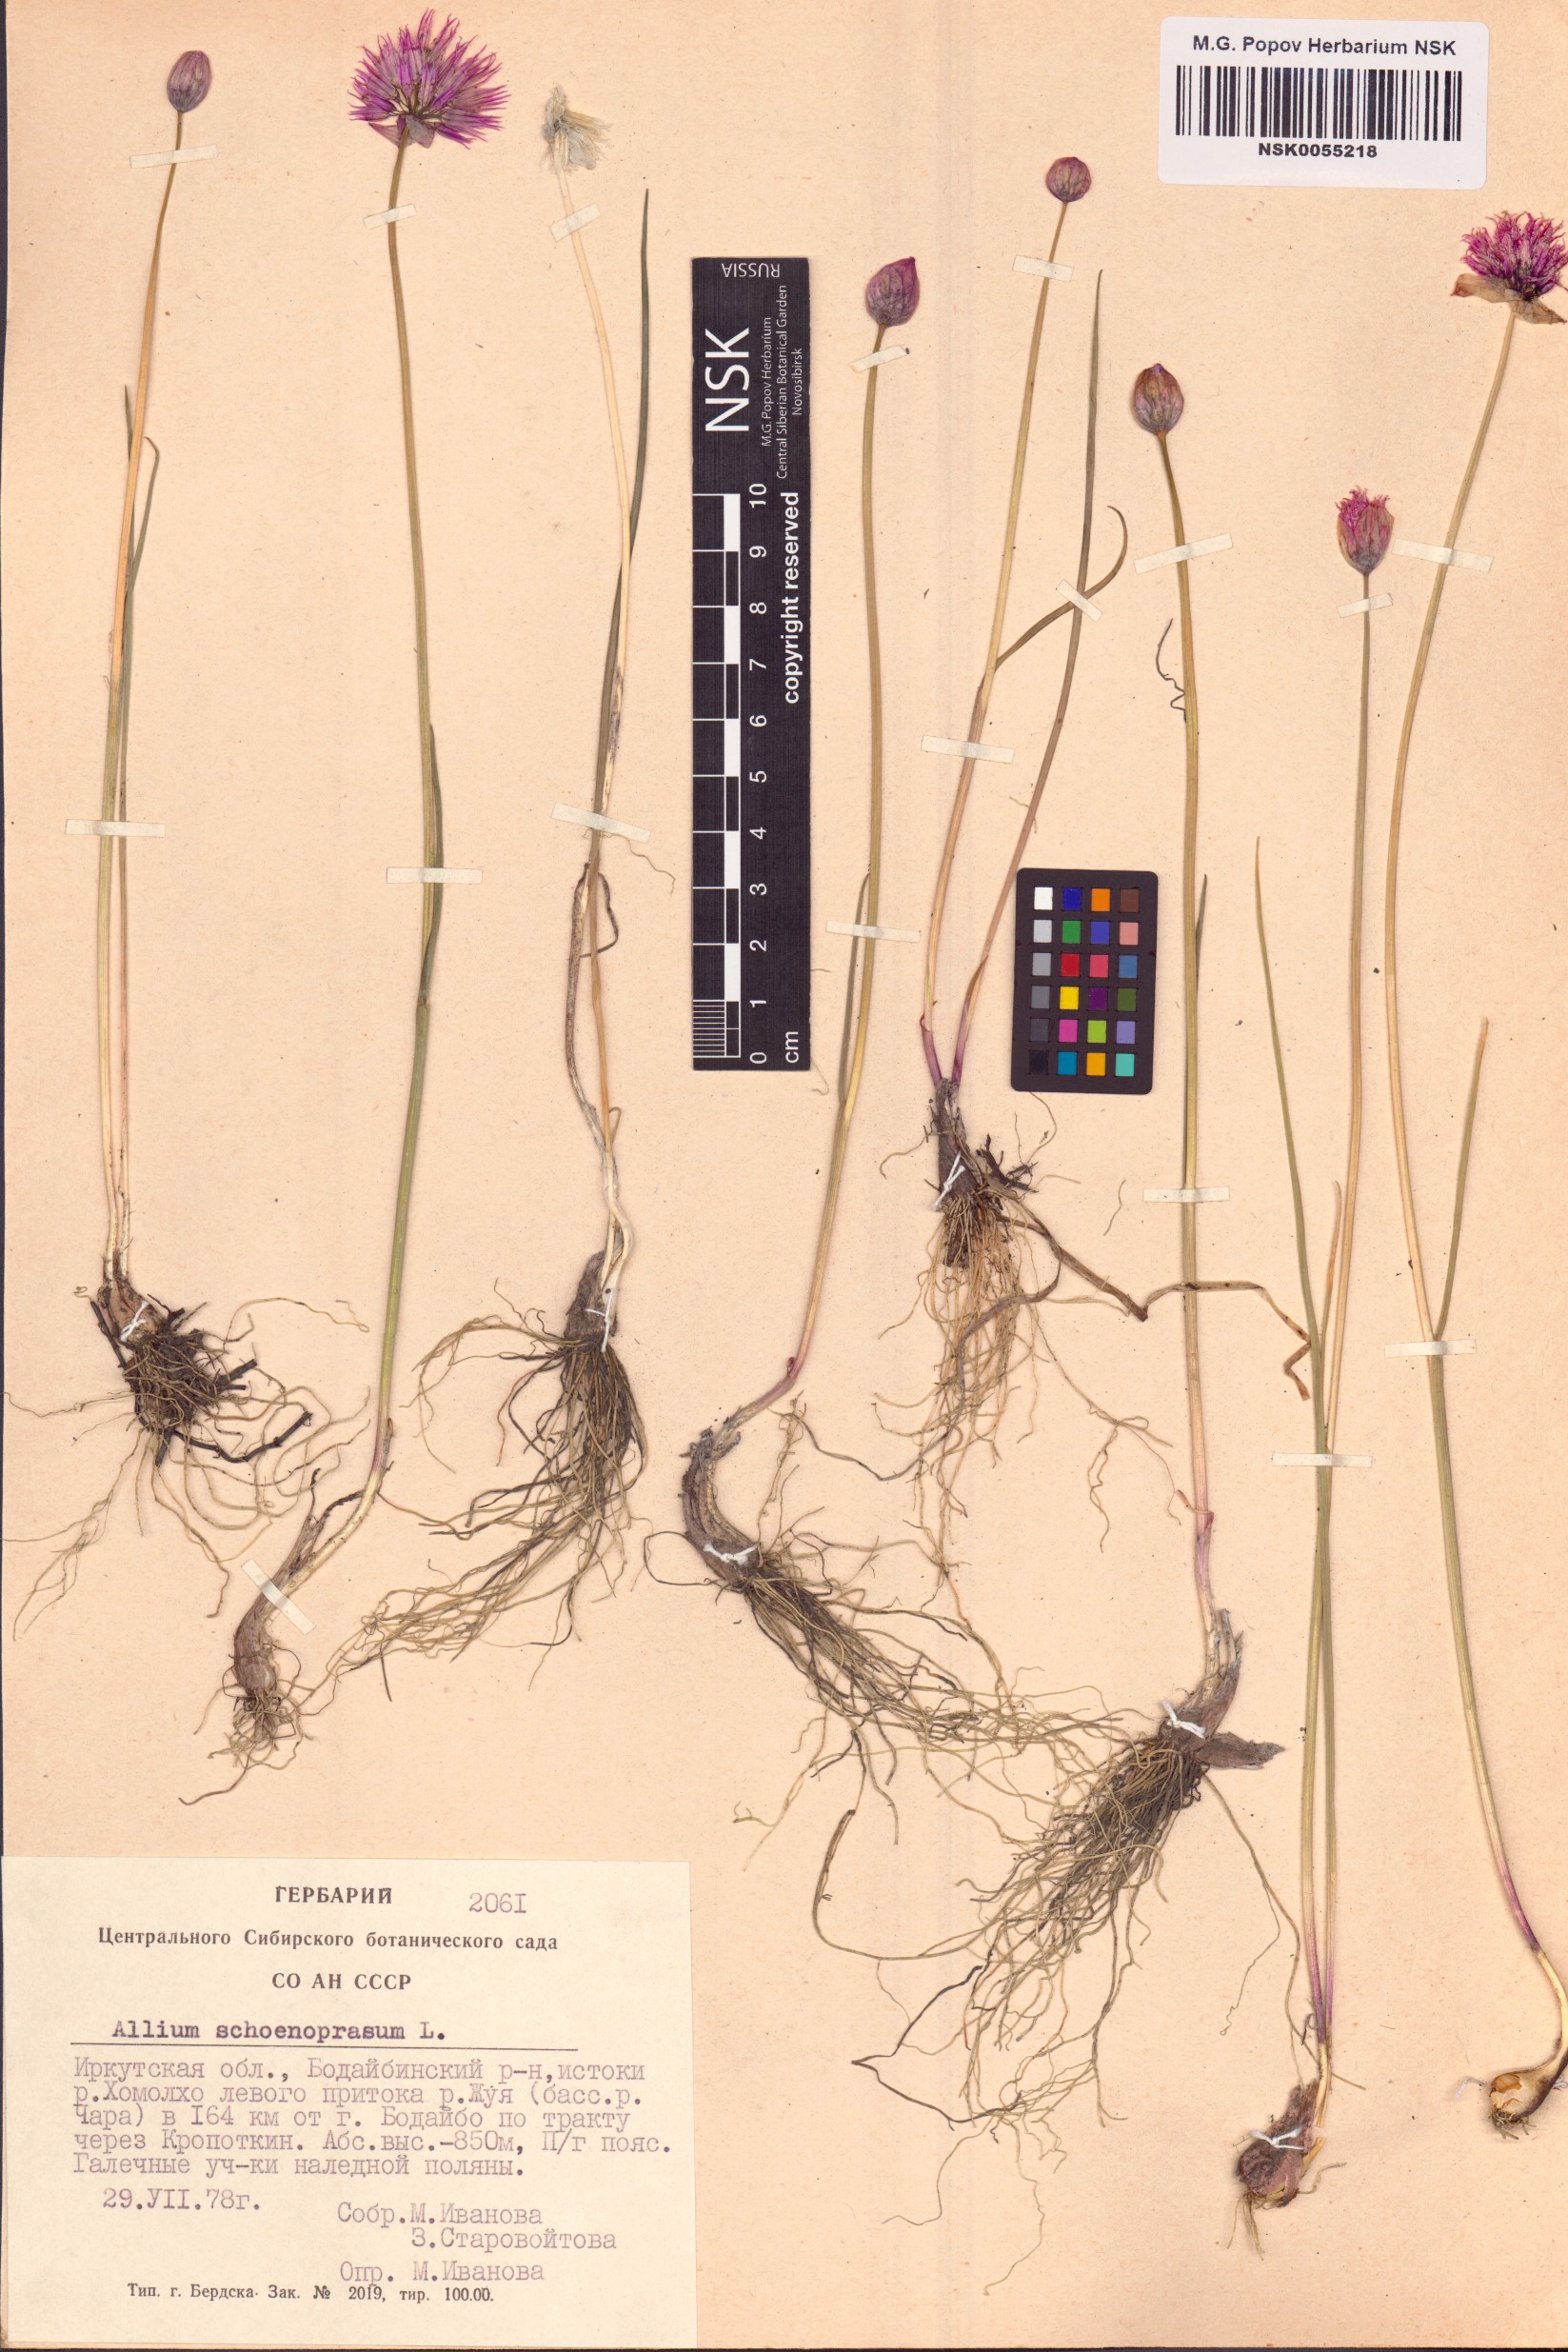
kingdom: Plantae
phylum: Tracheophyta
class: Liliopsida
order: Asparagales
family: Amaryllidaceae
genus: Allium
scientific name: Allium schoenoprasum
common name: Chives
